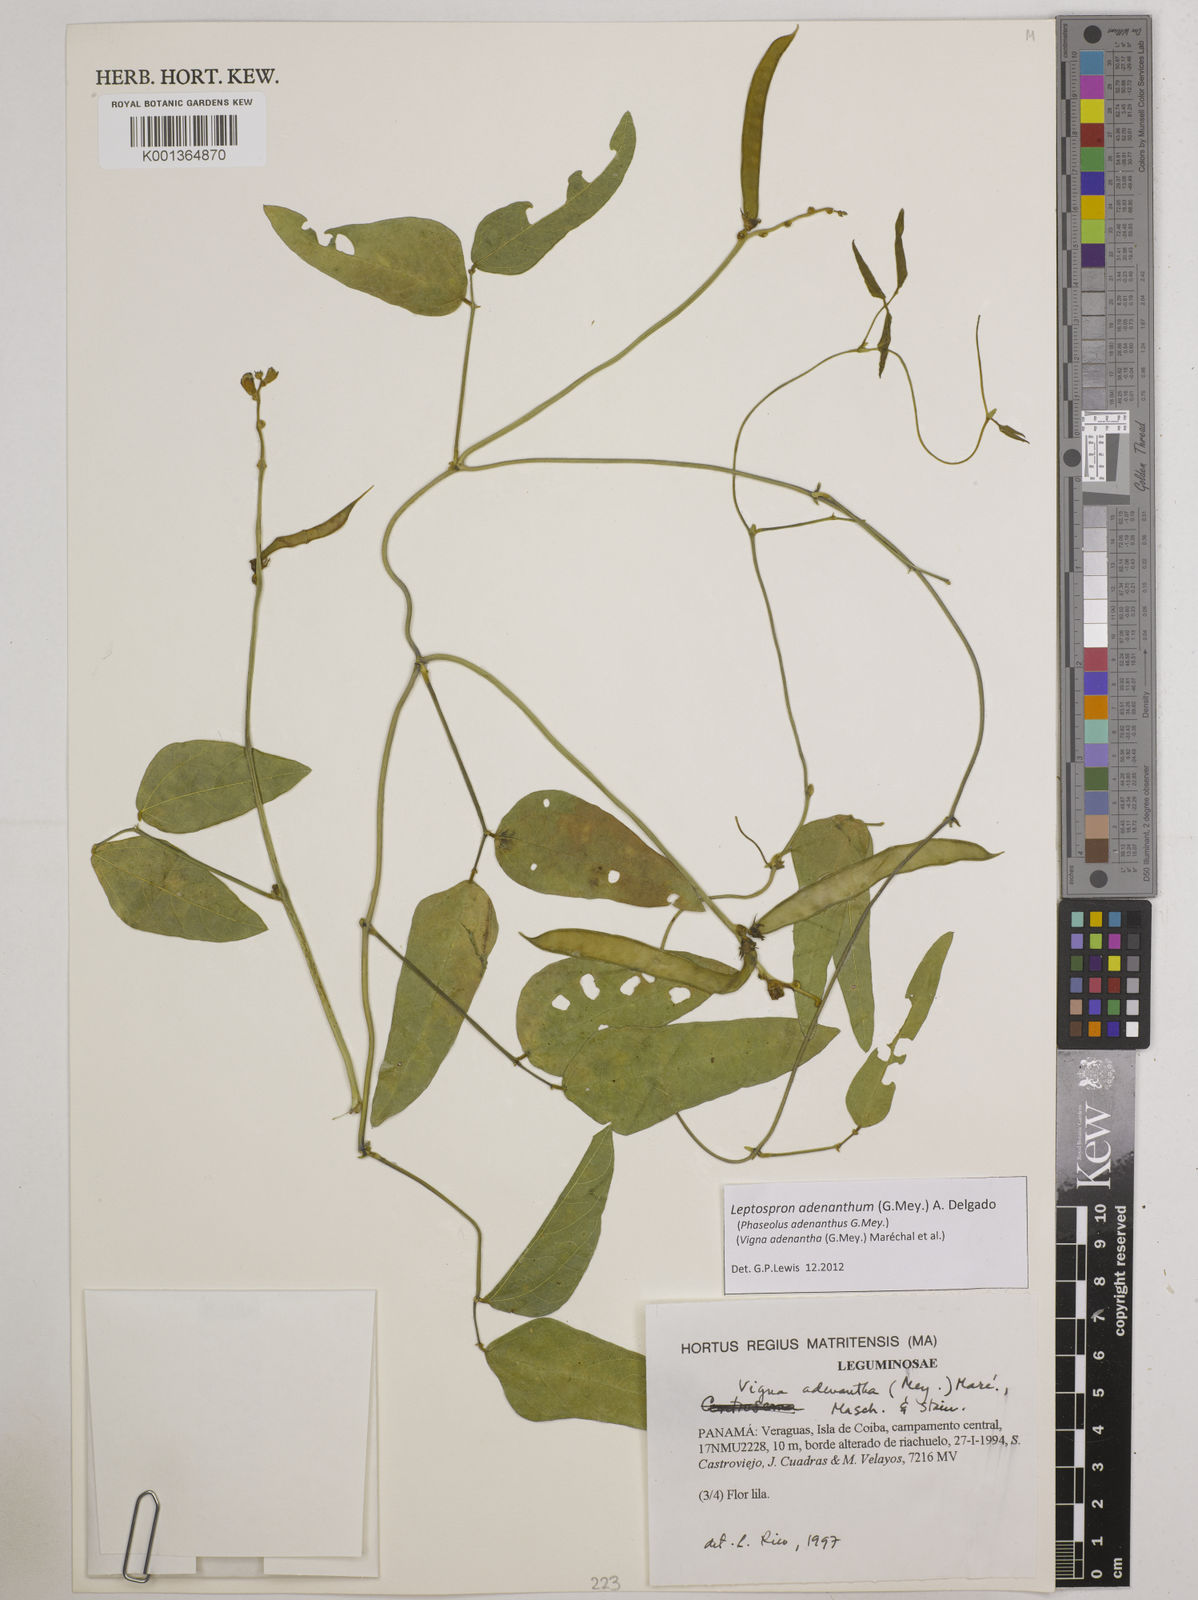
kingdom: Plantae
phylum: Tracheophyta
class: Magnoliopsida
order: Fabales
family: Fabaceae
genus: Leptospron
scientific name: Leptospron adenanthum
